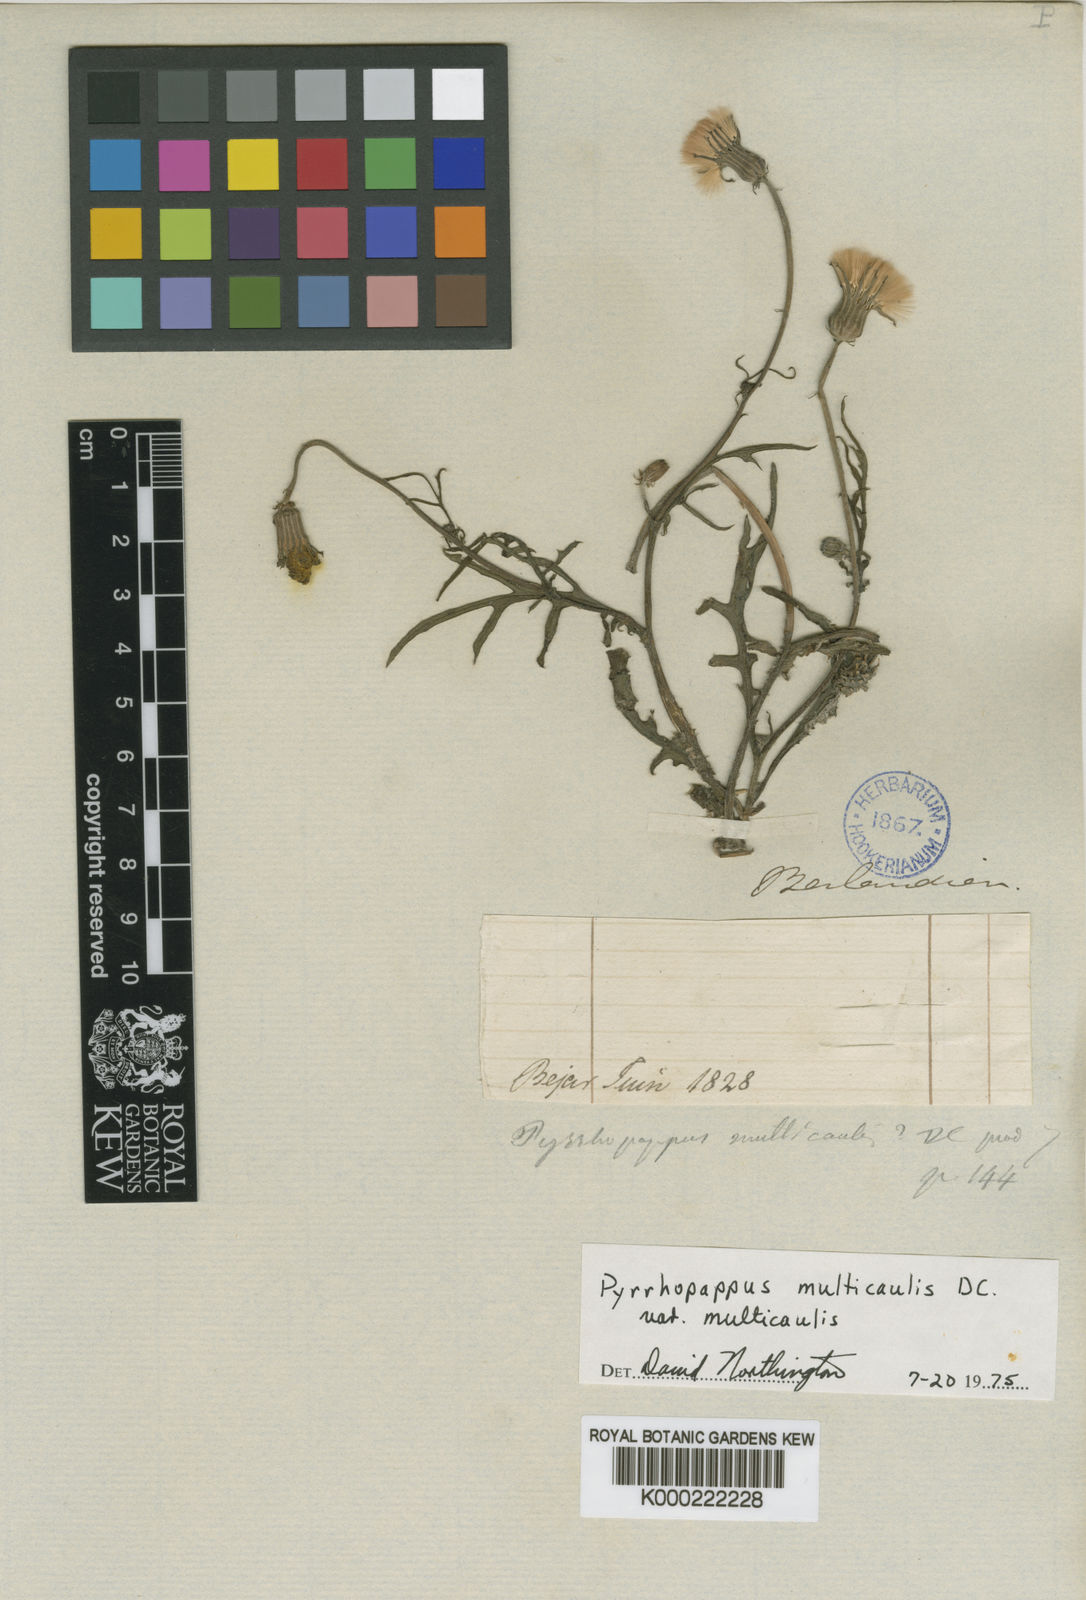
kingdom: Plantae
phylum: Tracheophyta
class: Magnoliopsida
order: Asterales
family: Asteraceae
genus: Pyrrhopappus
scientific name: Pyrrhopappus pauciflorus
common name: Texas false dandelion
